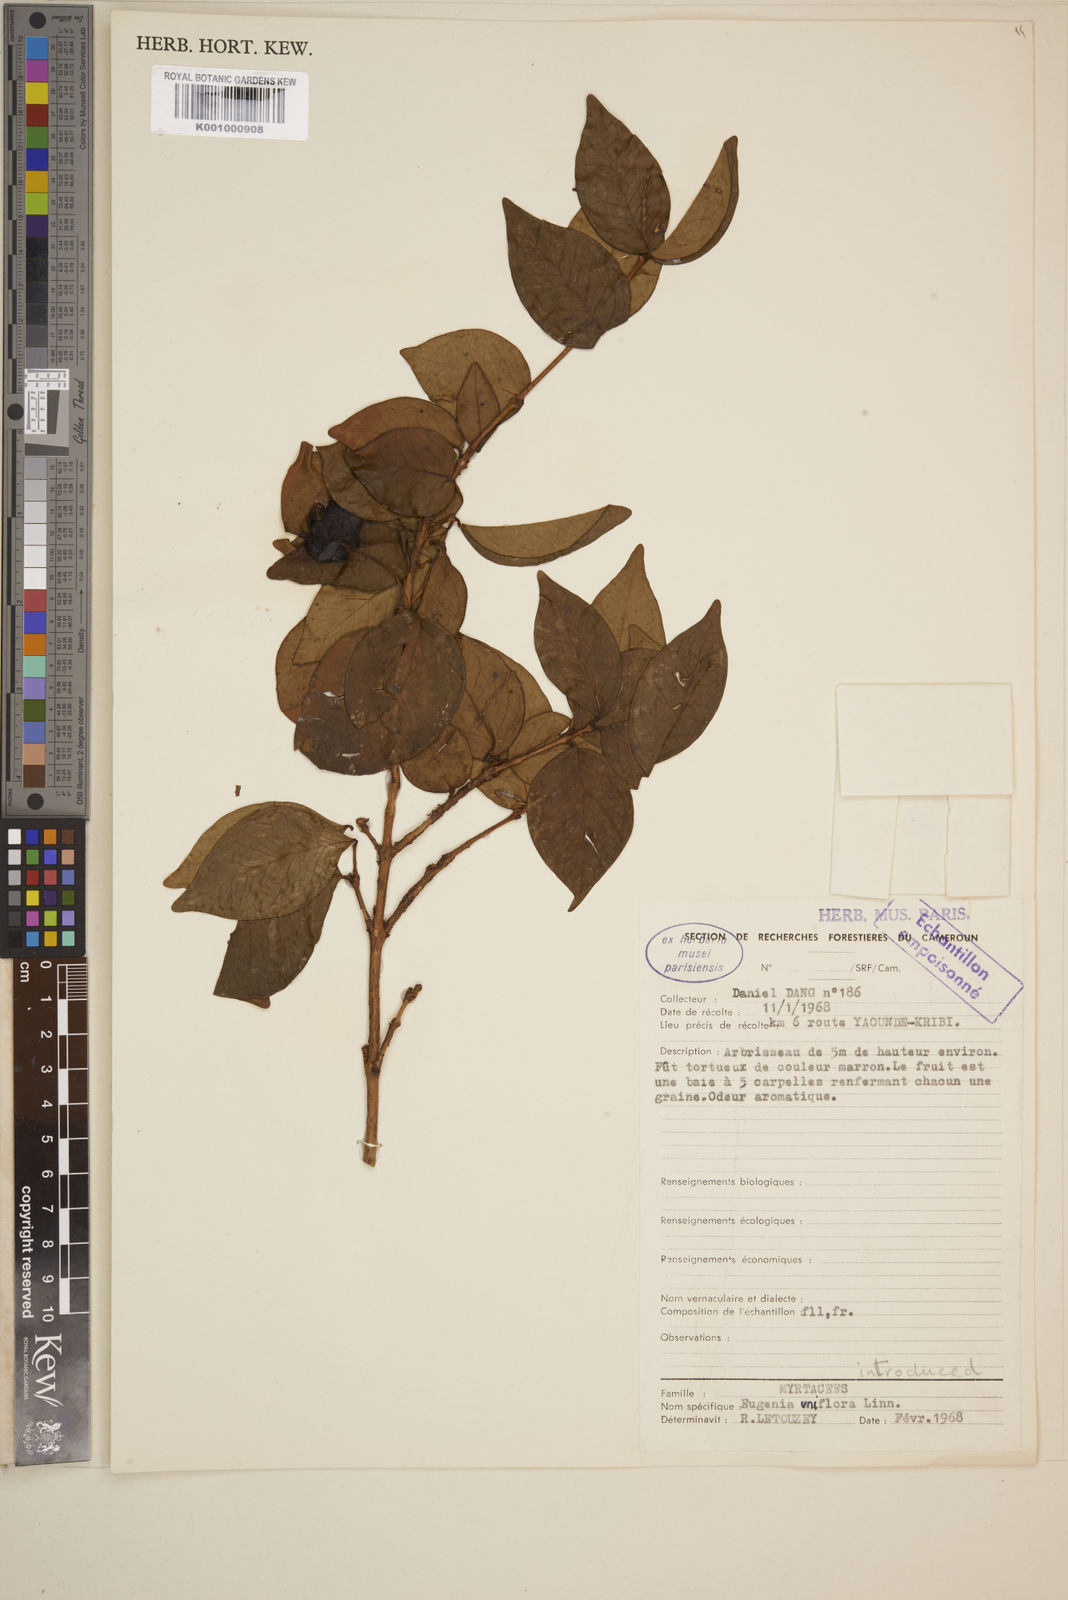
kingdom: Plantae
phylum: Tracheophyta
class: Magnoliopsida
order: Myrtales
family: Myrtaceae
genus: Eugenia
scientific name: Eugenia uniflora
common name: Surinam cherry
